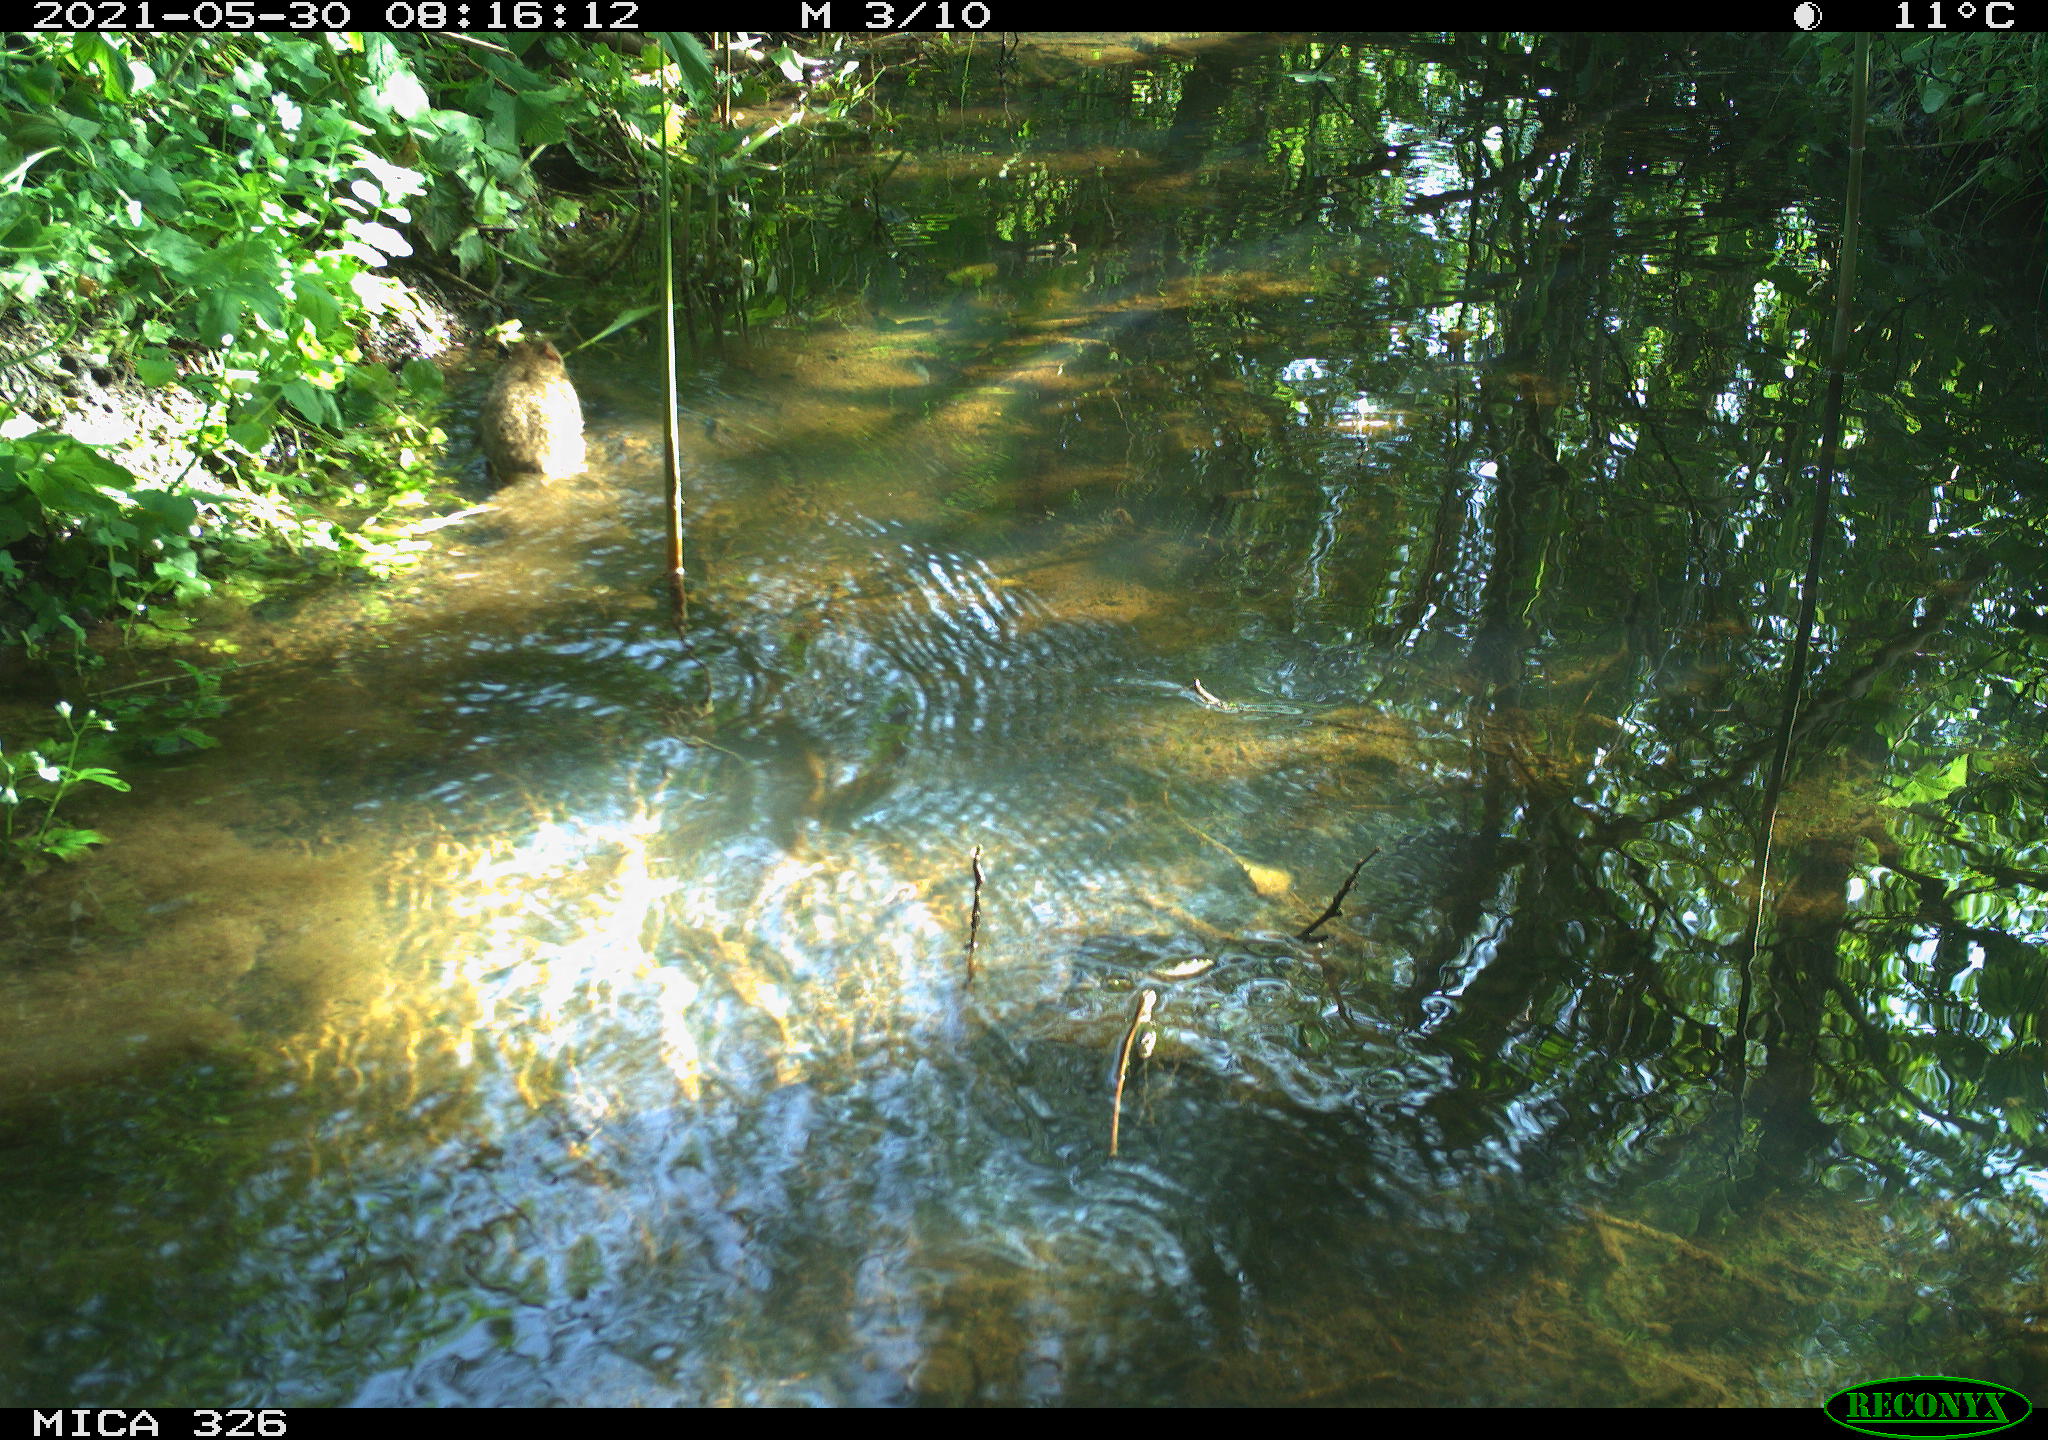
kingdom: Animalia
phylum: Chordata
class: Mammalia
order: Rodentia
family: Muridae
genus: Rattus
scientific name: Rattus norvegicus
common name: Brown rat
